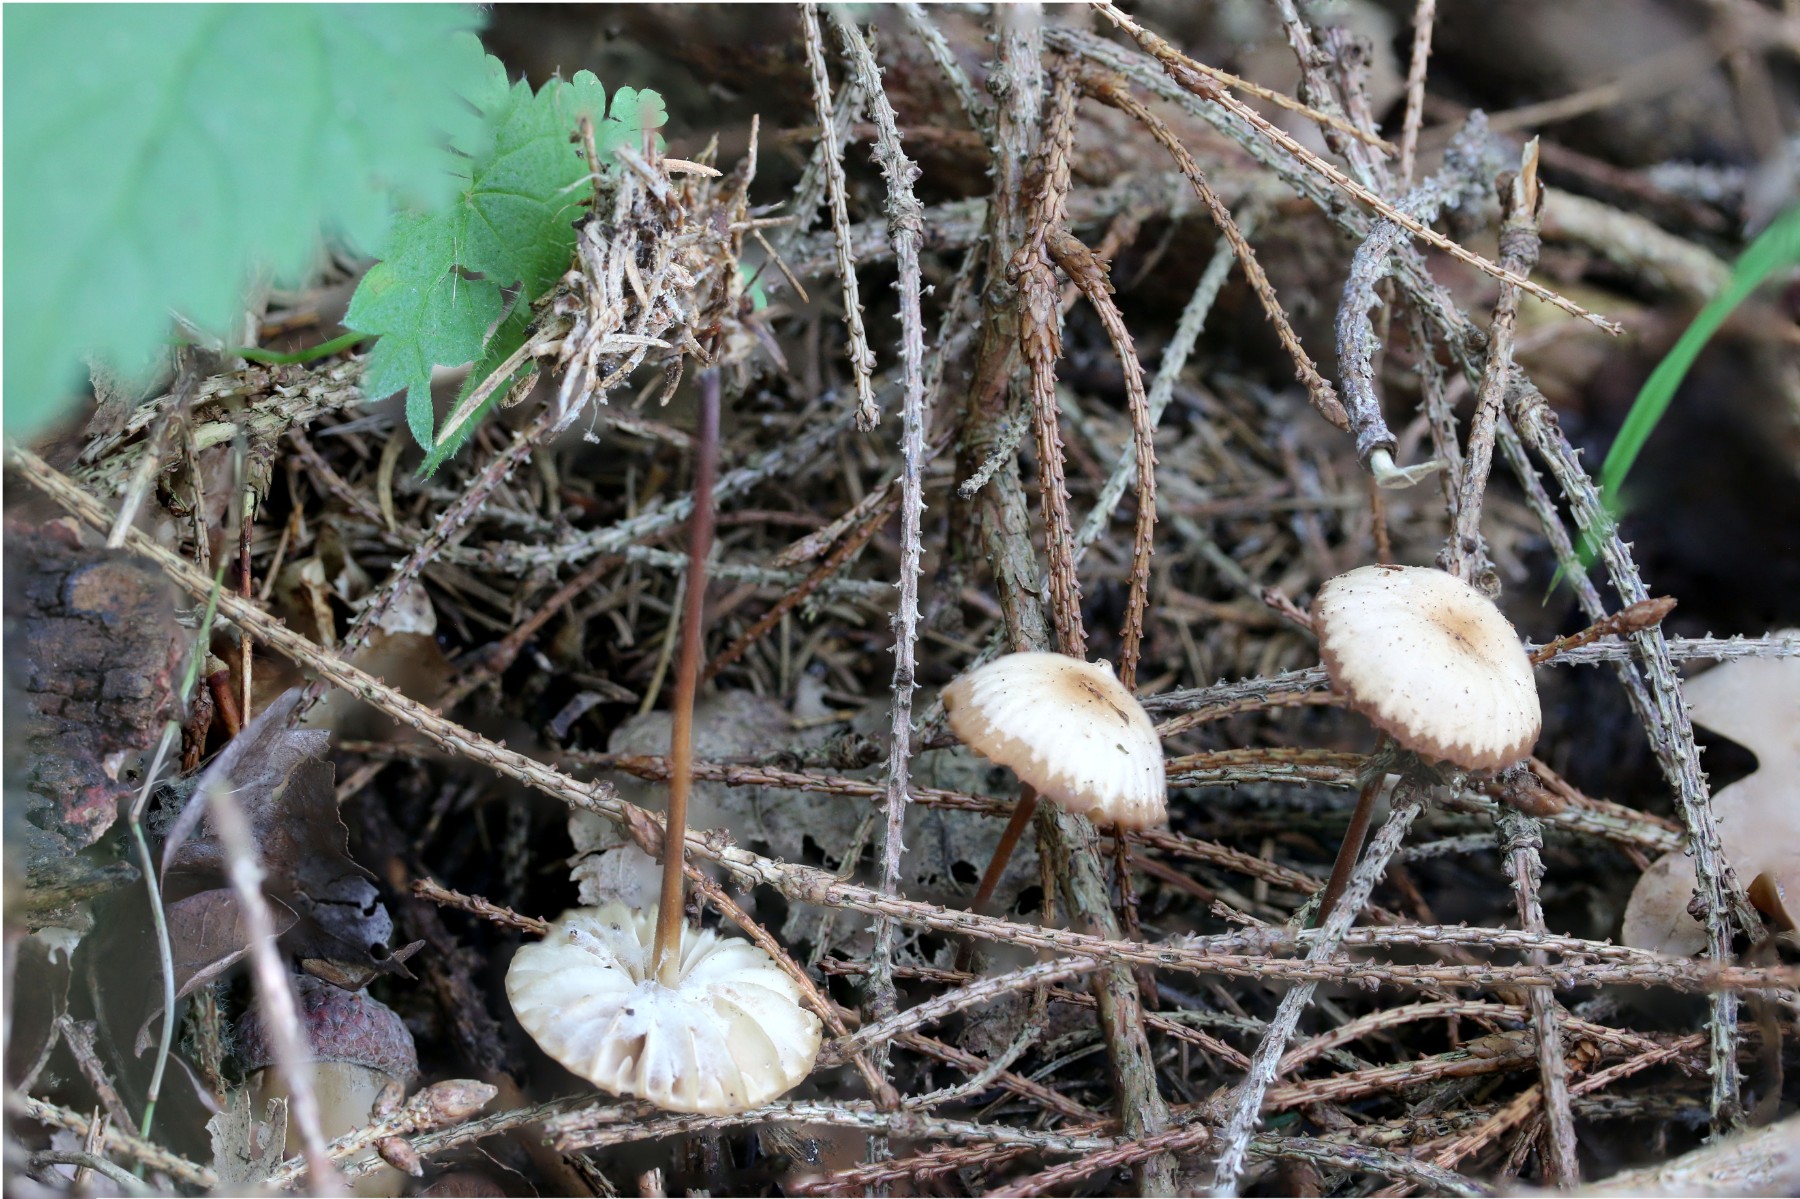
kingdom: Fungi
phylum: Basidiomycota
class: Agaricomycetes
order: Agaricales
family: Marasmiaceae
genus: Marasmius
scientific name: Marasmius torquescens
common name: filtfodet bruskhat
